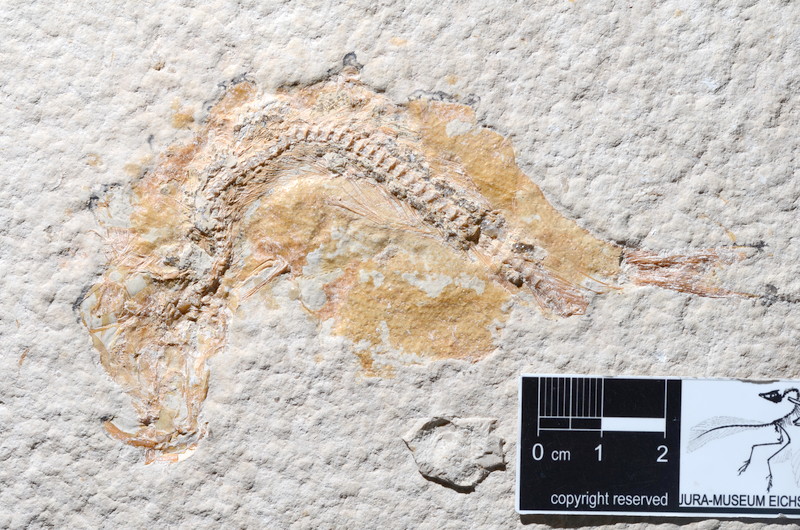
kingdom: Animalia
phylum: Chordata
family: Ascalaboidae
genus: Tharsis
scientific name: Tharsis dubius
